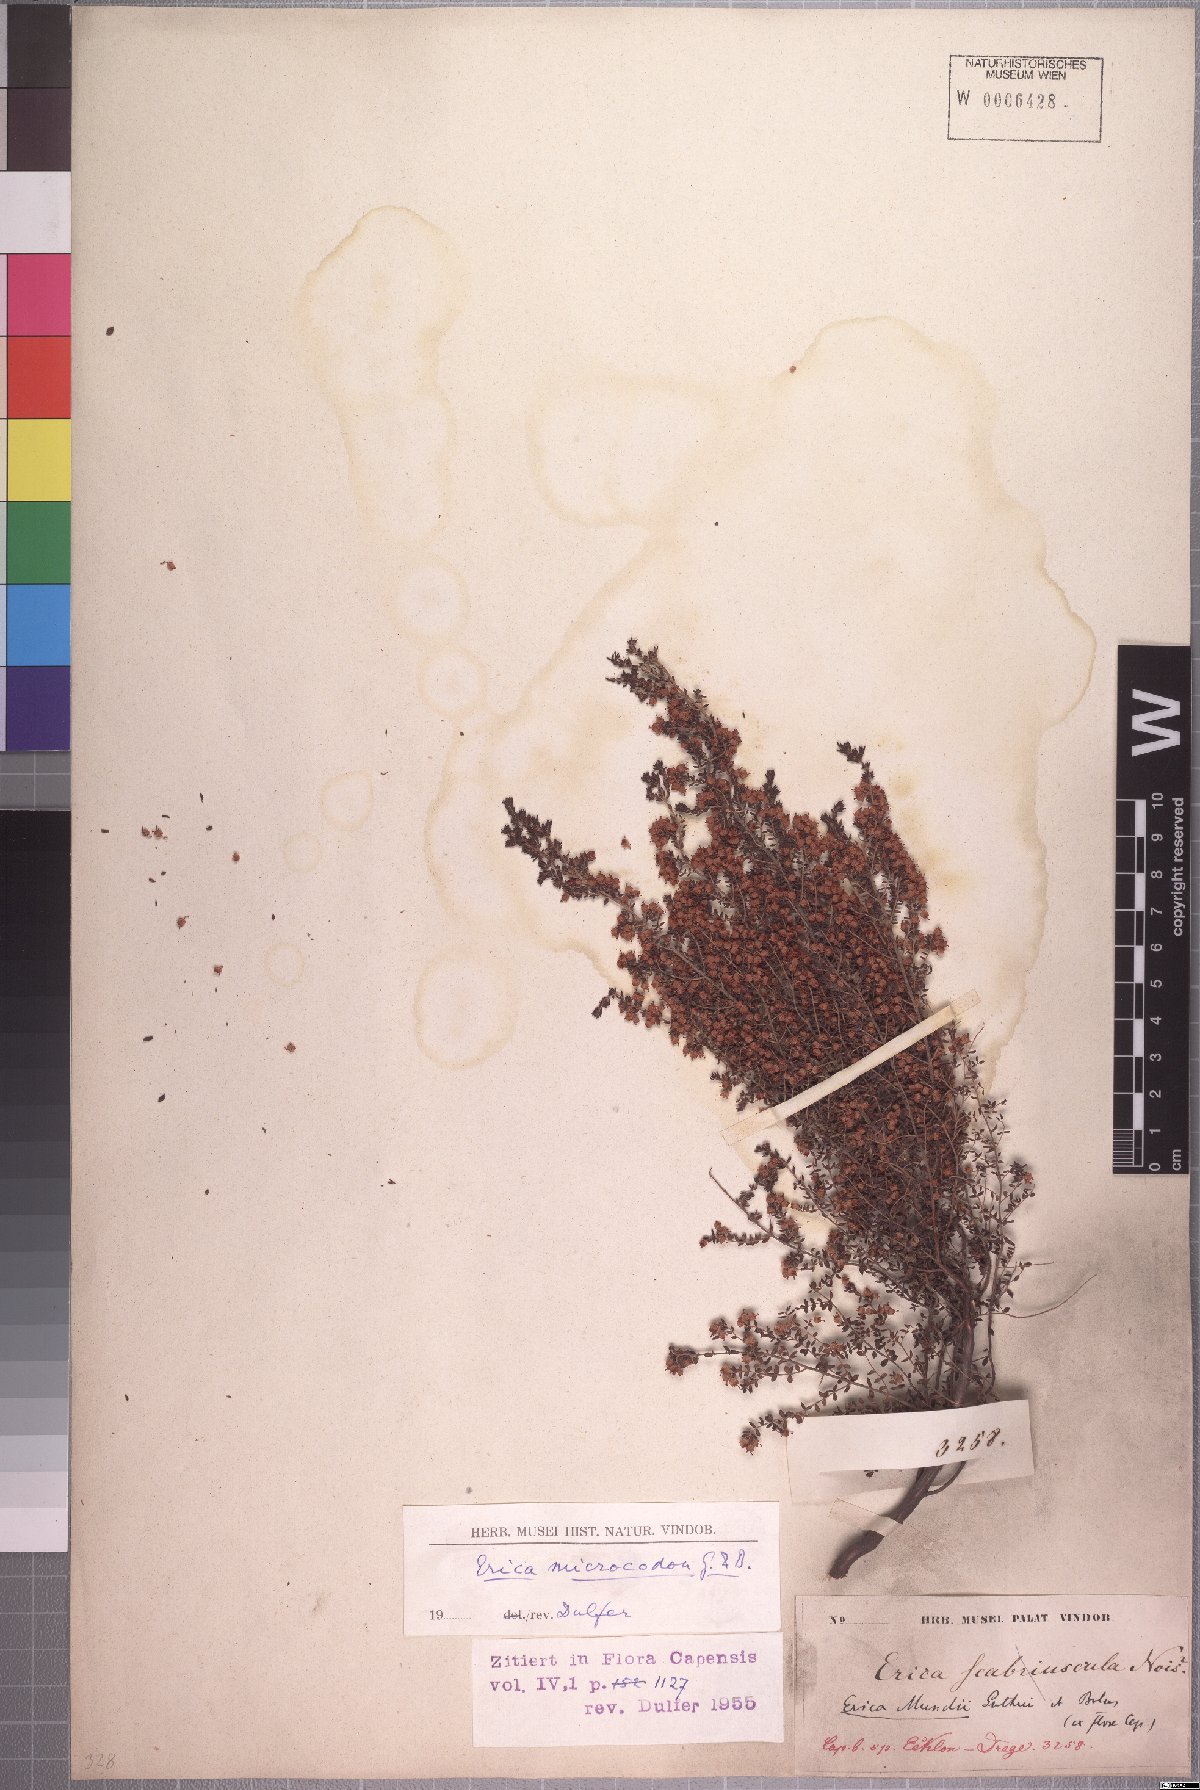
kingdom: Plantae
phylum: Tracheophyta
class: Magnoliopsida
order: Ericales
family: Ericaceae
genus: Erica
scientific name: Erica mundii
